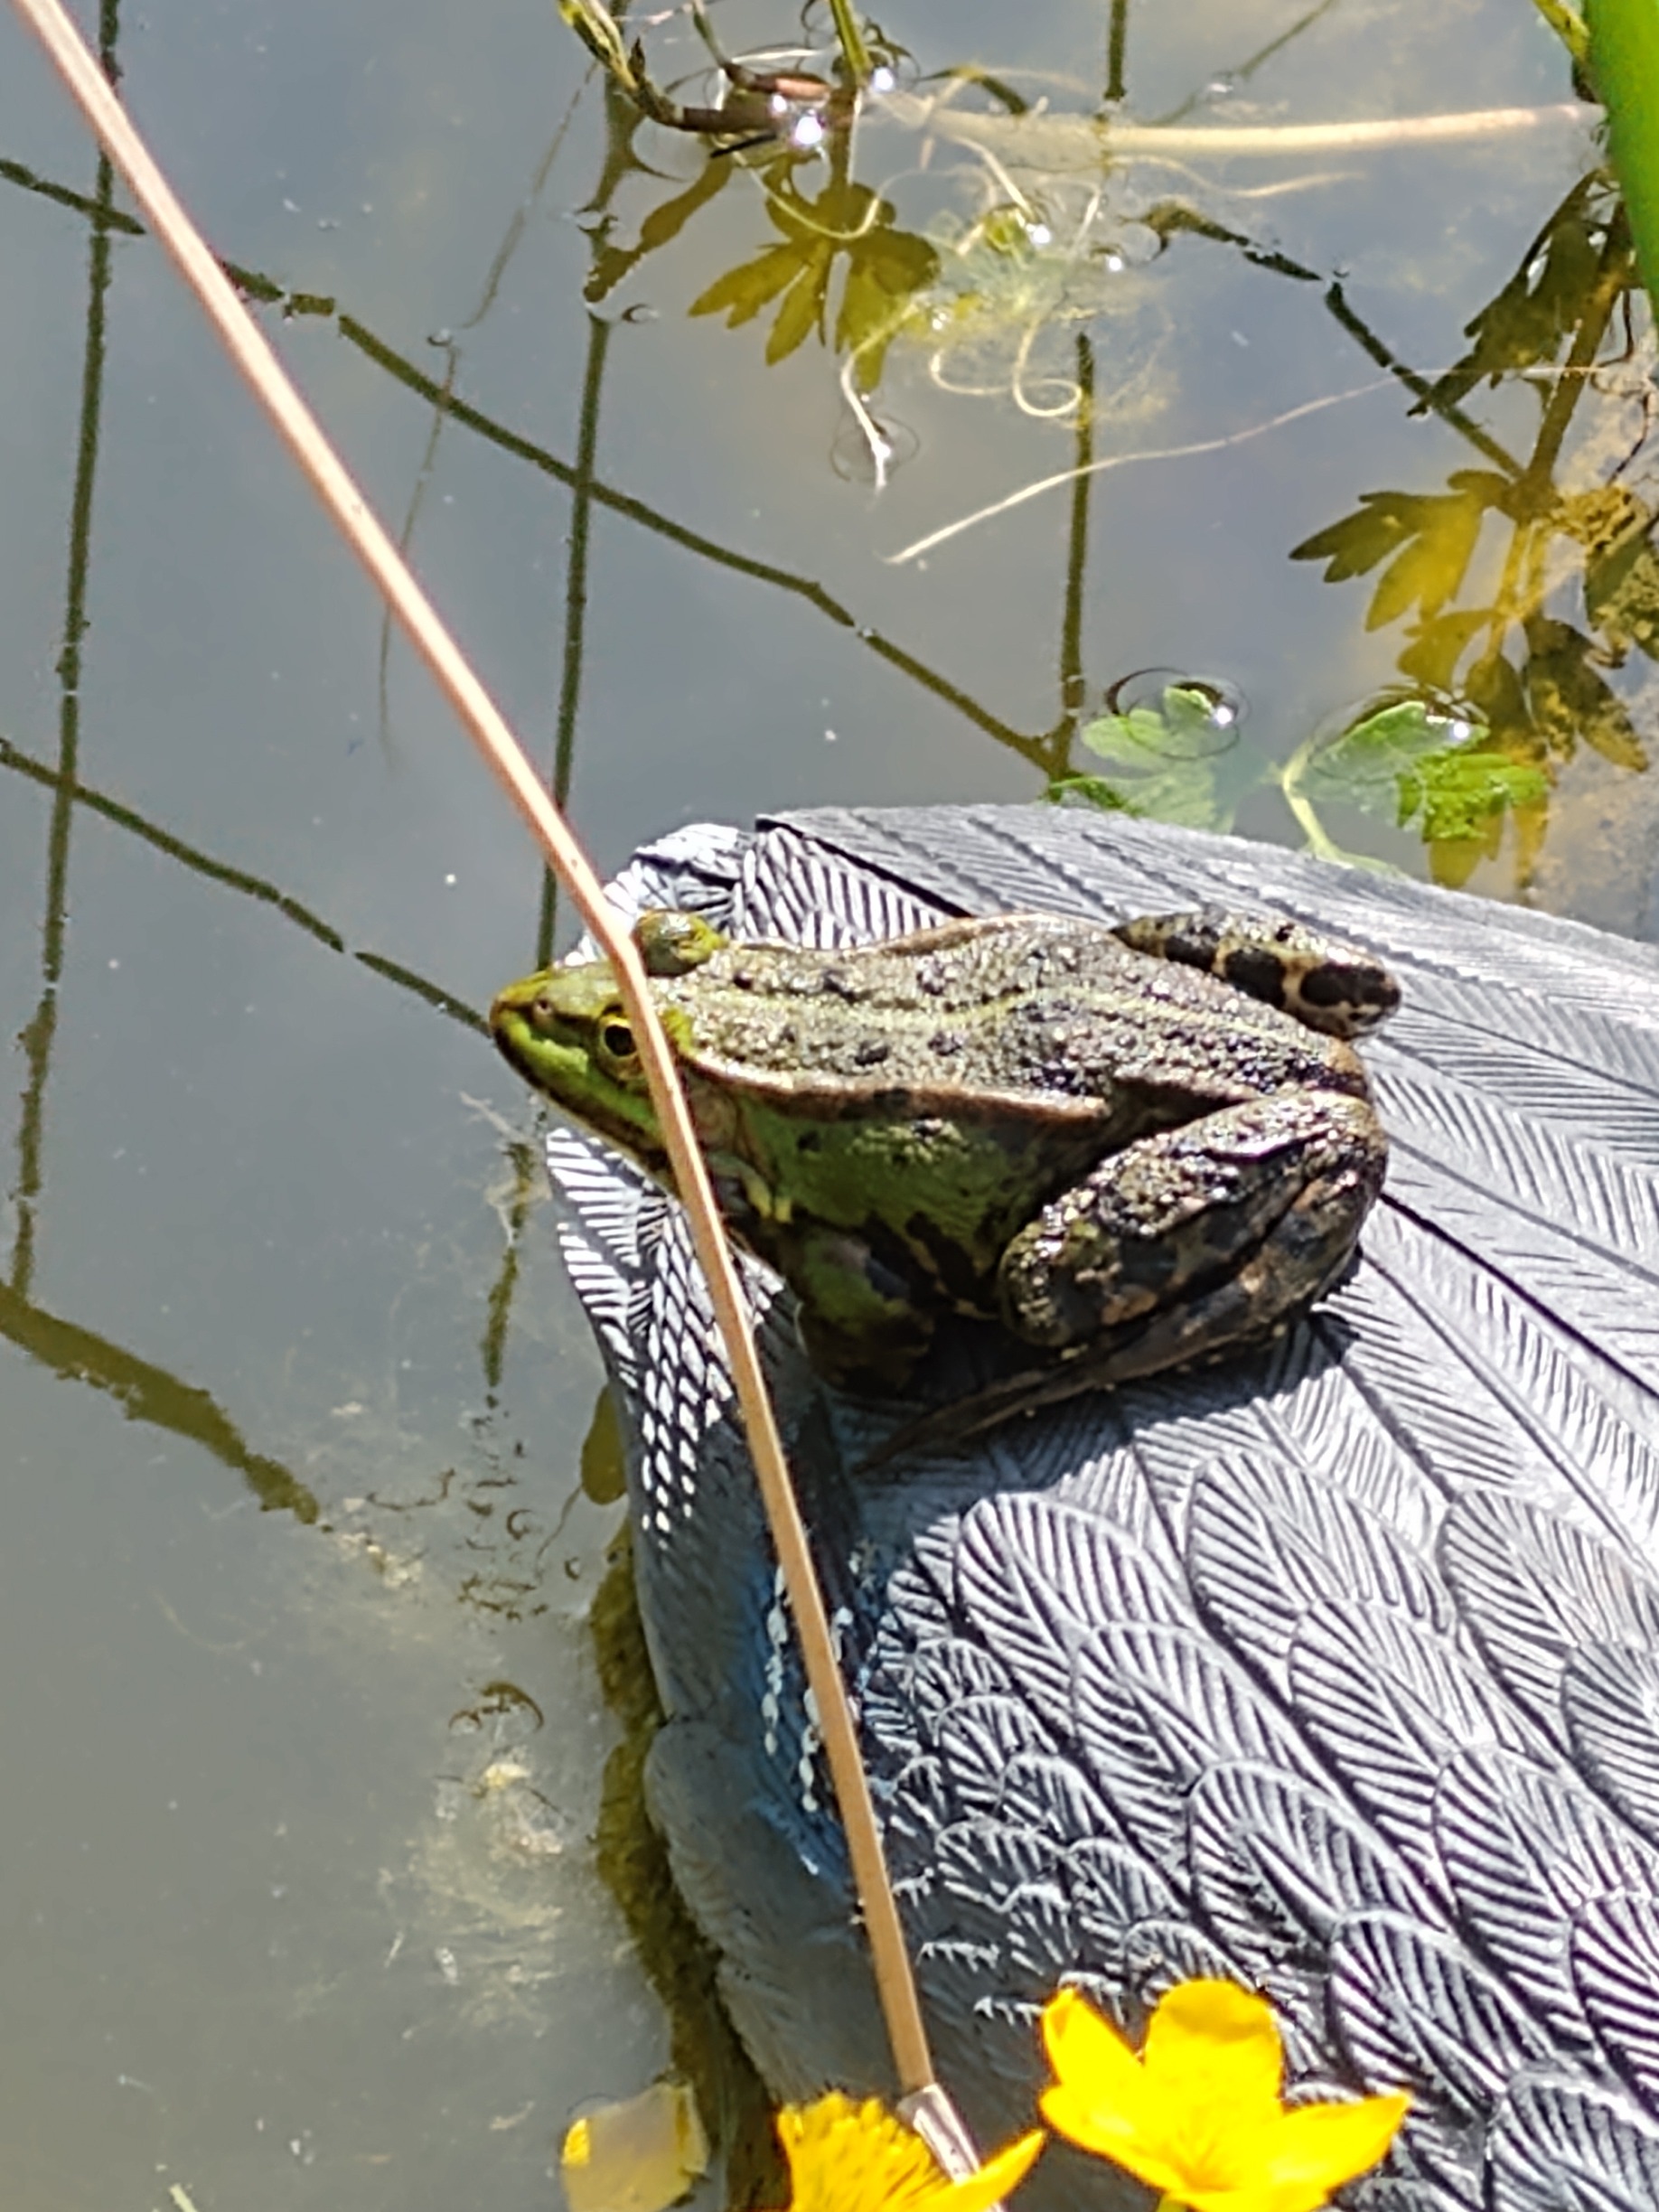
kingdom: Animalia
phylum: Chordata
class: Amphibia
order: Anura
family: Ranidae
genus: Pelophylax
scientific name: Pelophylax lessonae
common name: Grøn frø
